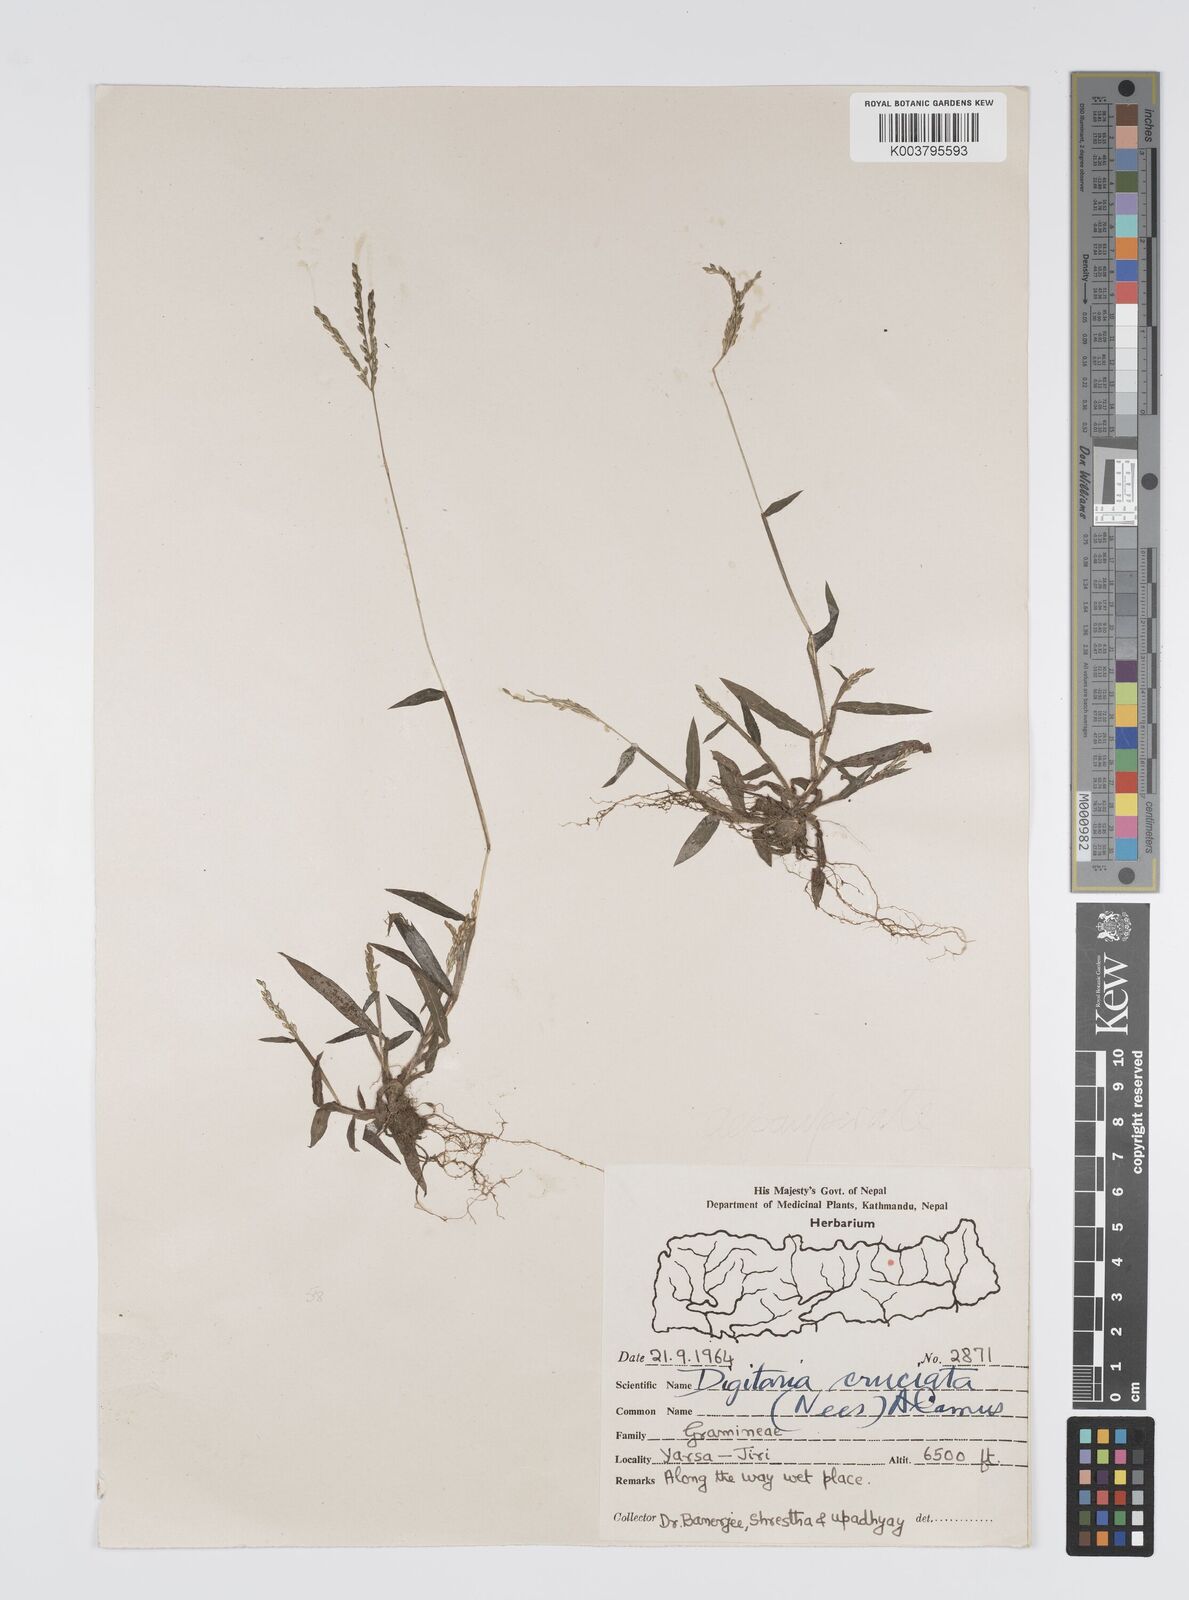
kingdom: Plantae
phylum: Tracheophyta
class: Liliopsida
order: Poales
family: Poaceae
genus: Digitaria
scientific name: Digitaria sanguinalis
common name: Hairy crabgrass
